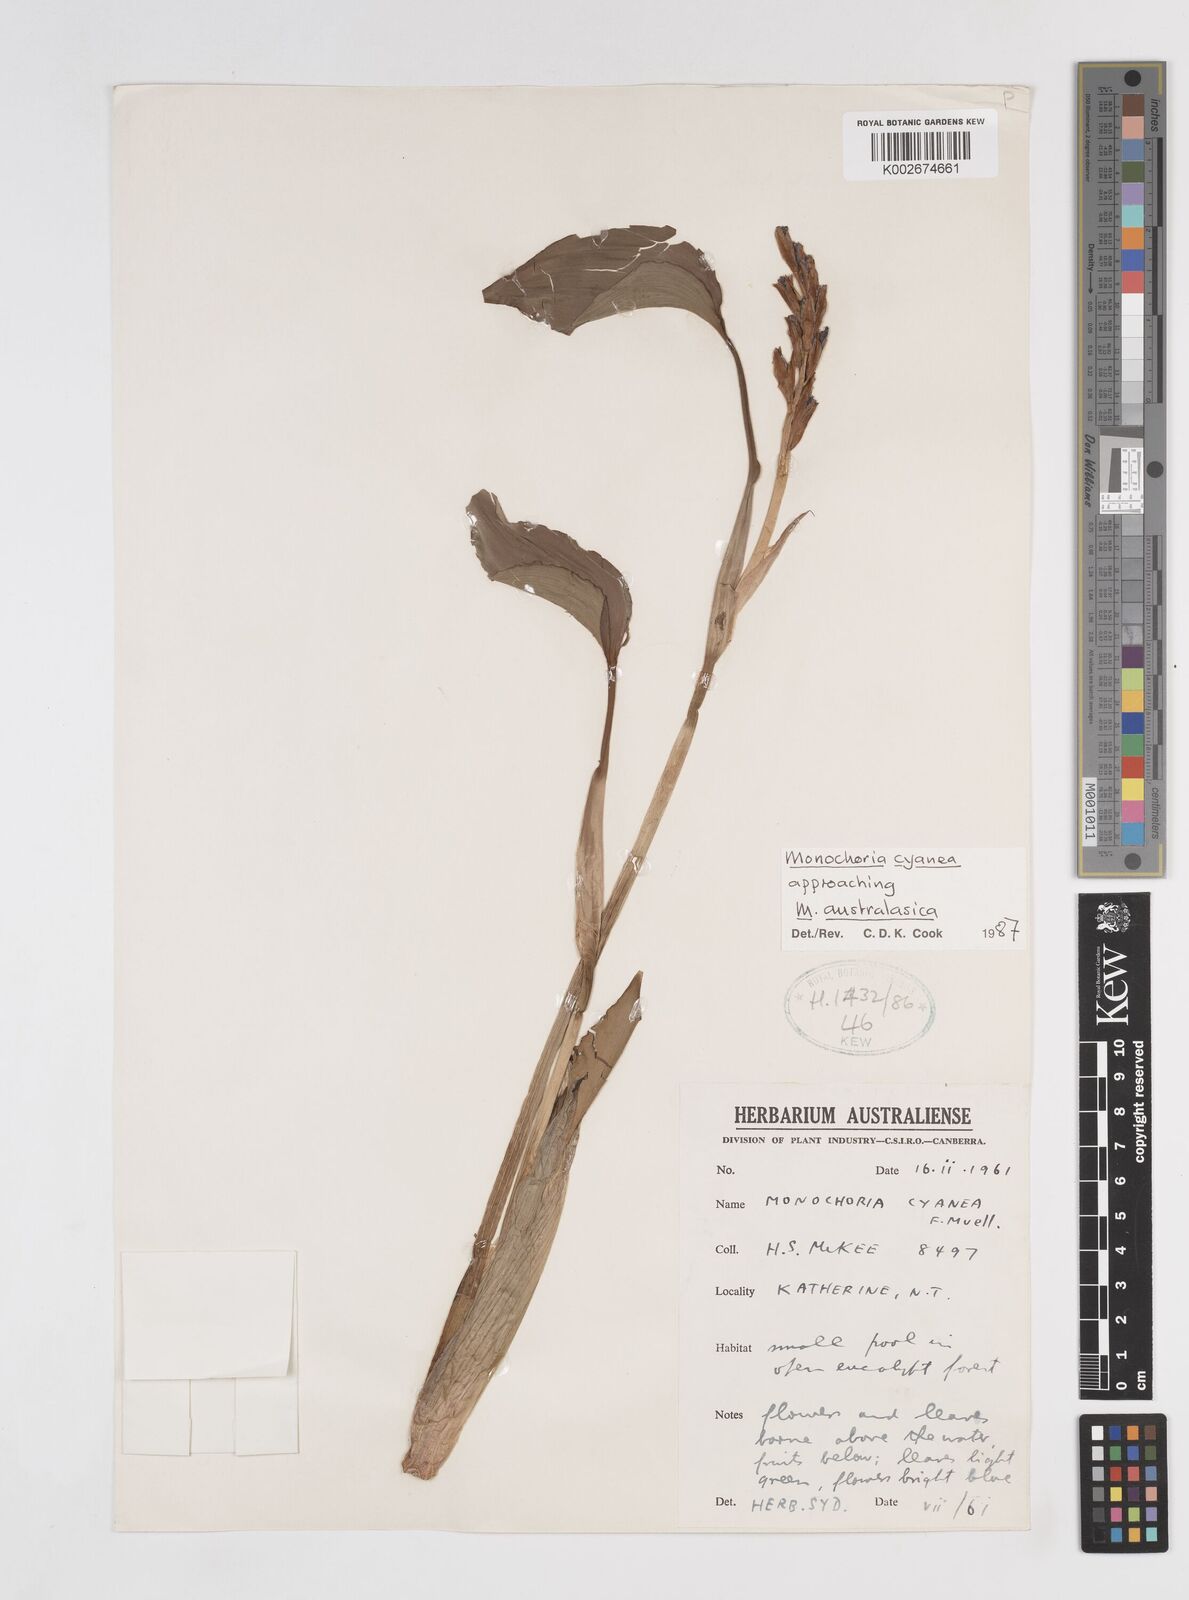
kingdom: Plantae
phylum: Tracheophyta
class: Liliopsida
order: Commelinales
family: Pontederiaceae
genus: Pontederia
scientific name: Pontederia cyanea
